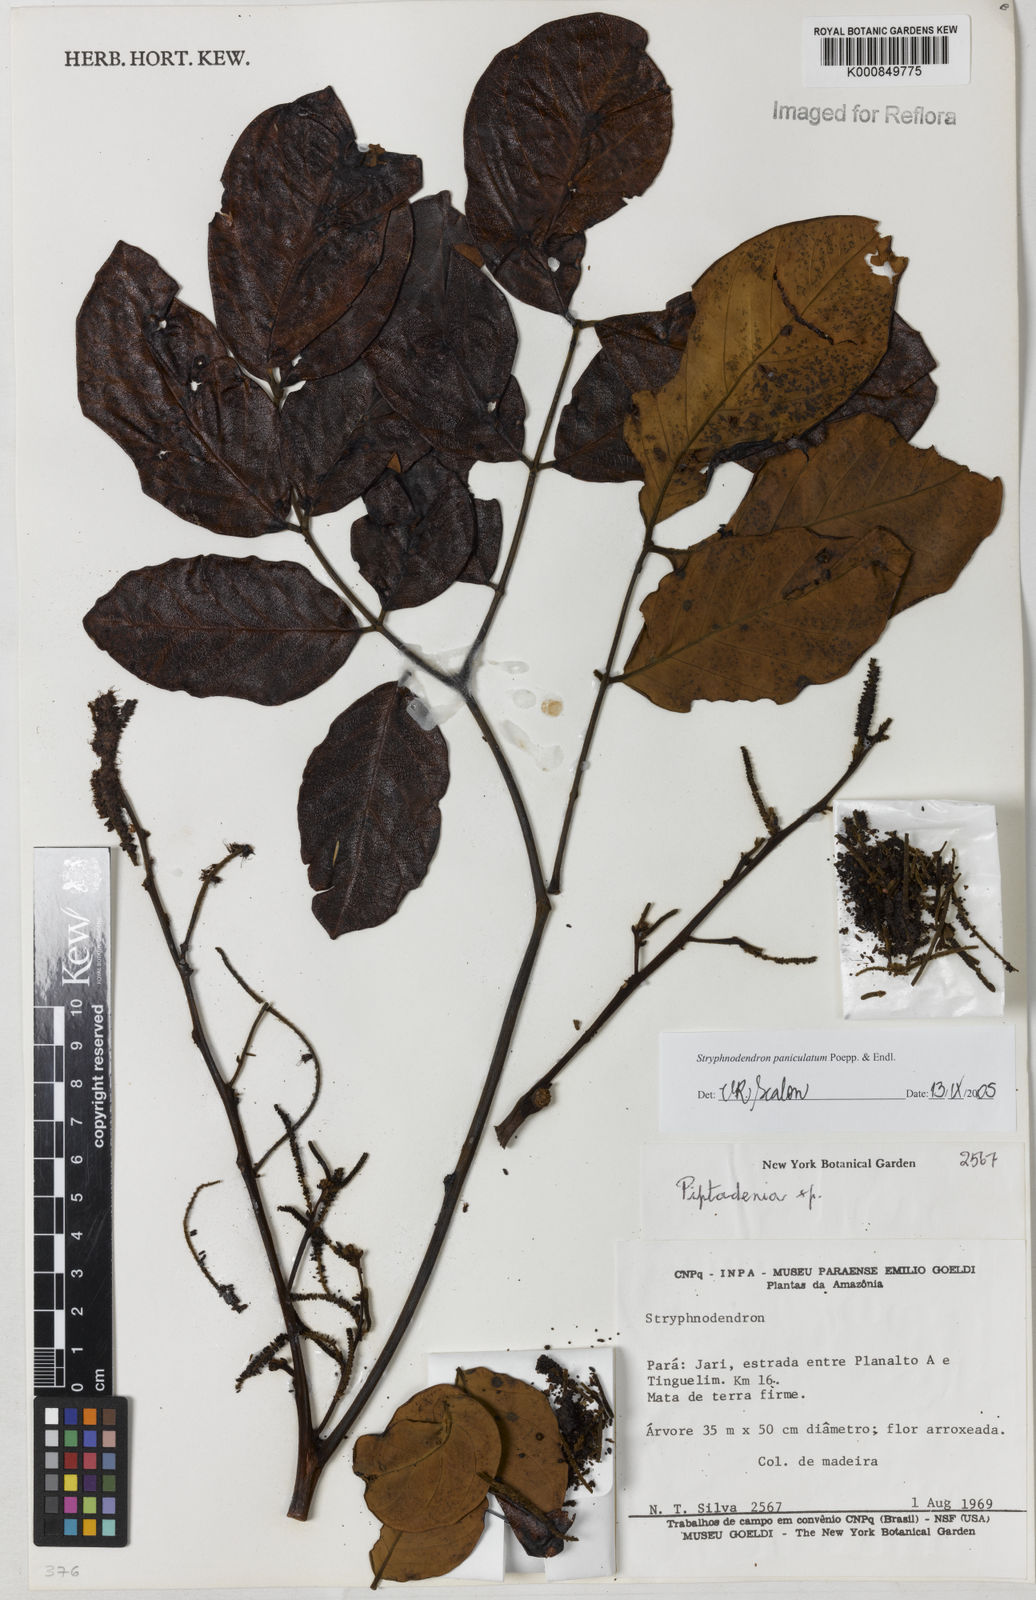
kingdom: Plantae
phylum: Tracheophyta
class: Magnoliopsida
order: Fabales
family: Fabaceae
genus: Stryphnodendron
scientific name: Stryphnodendron paniculatum
